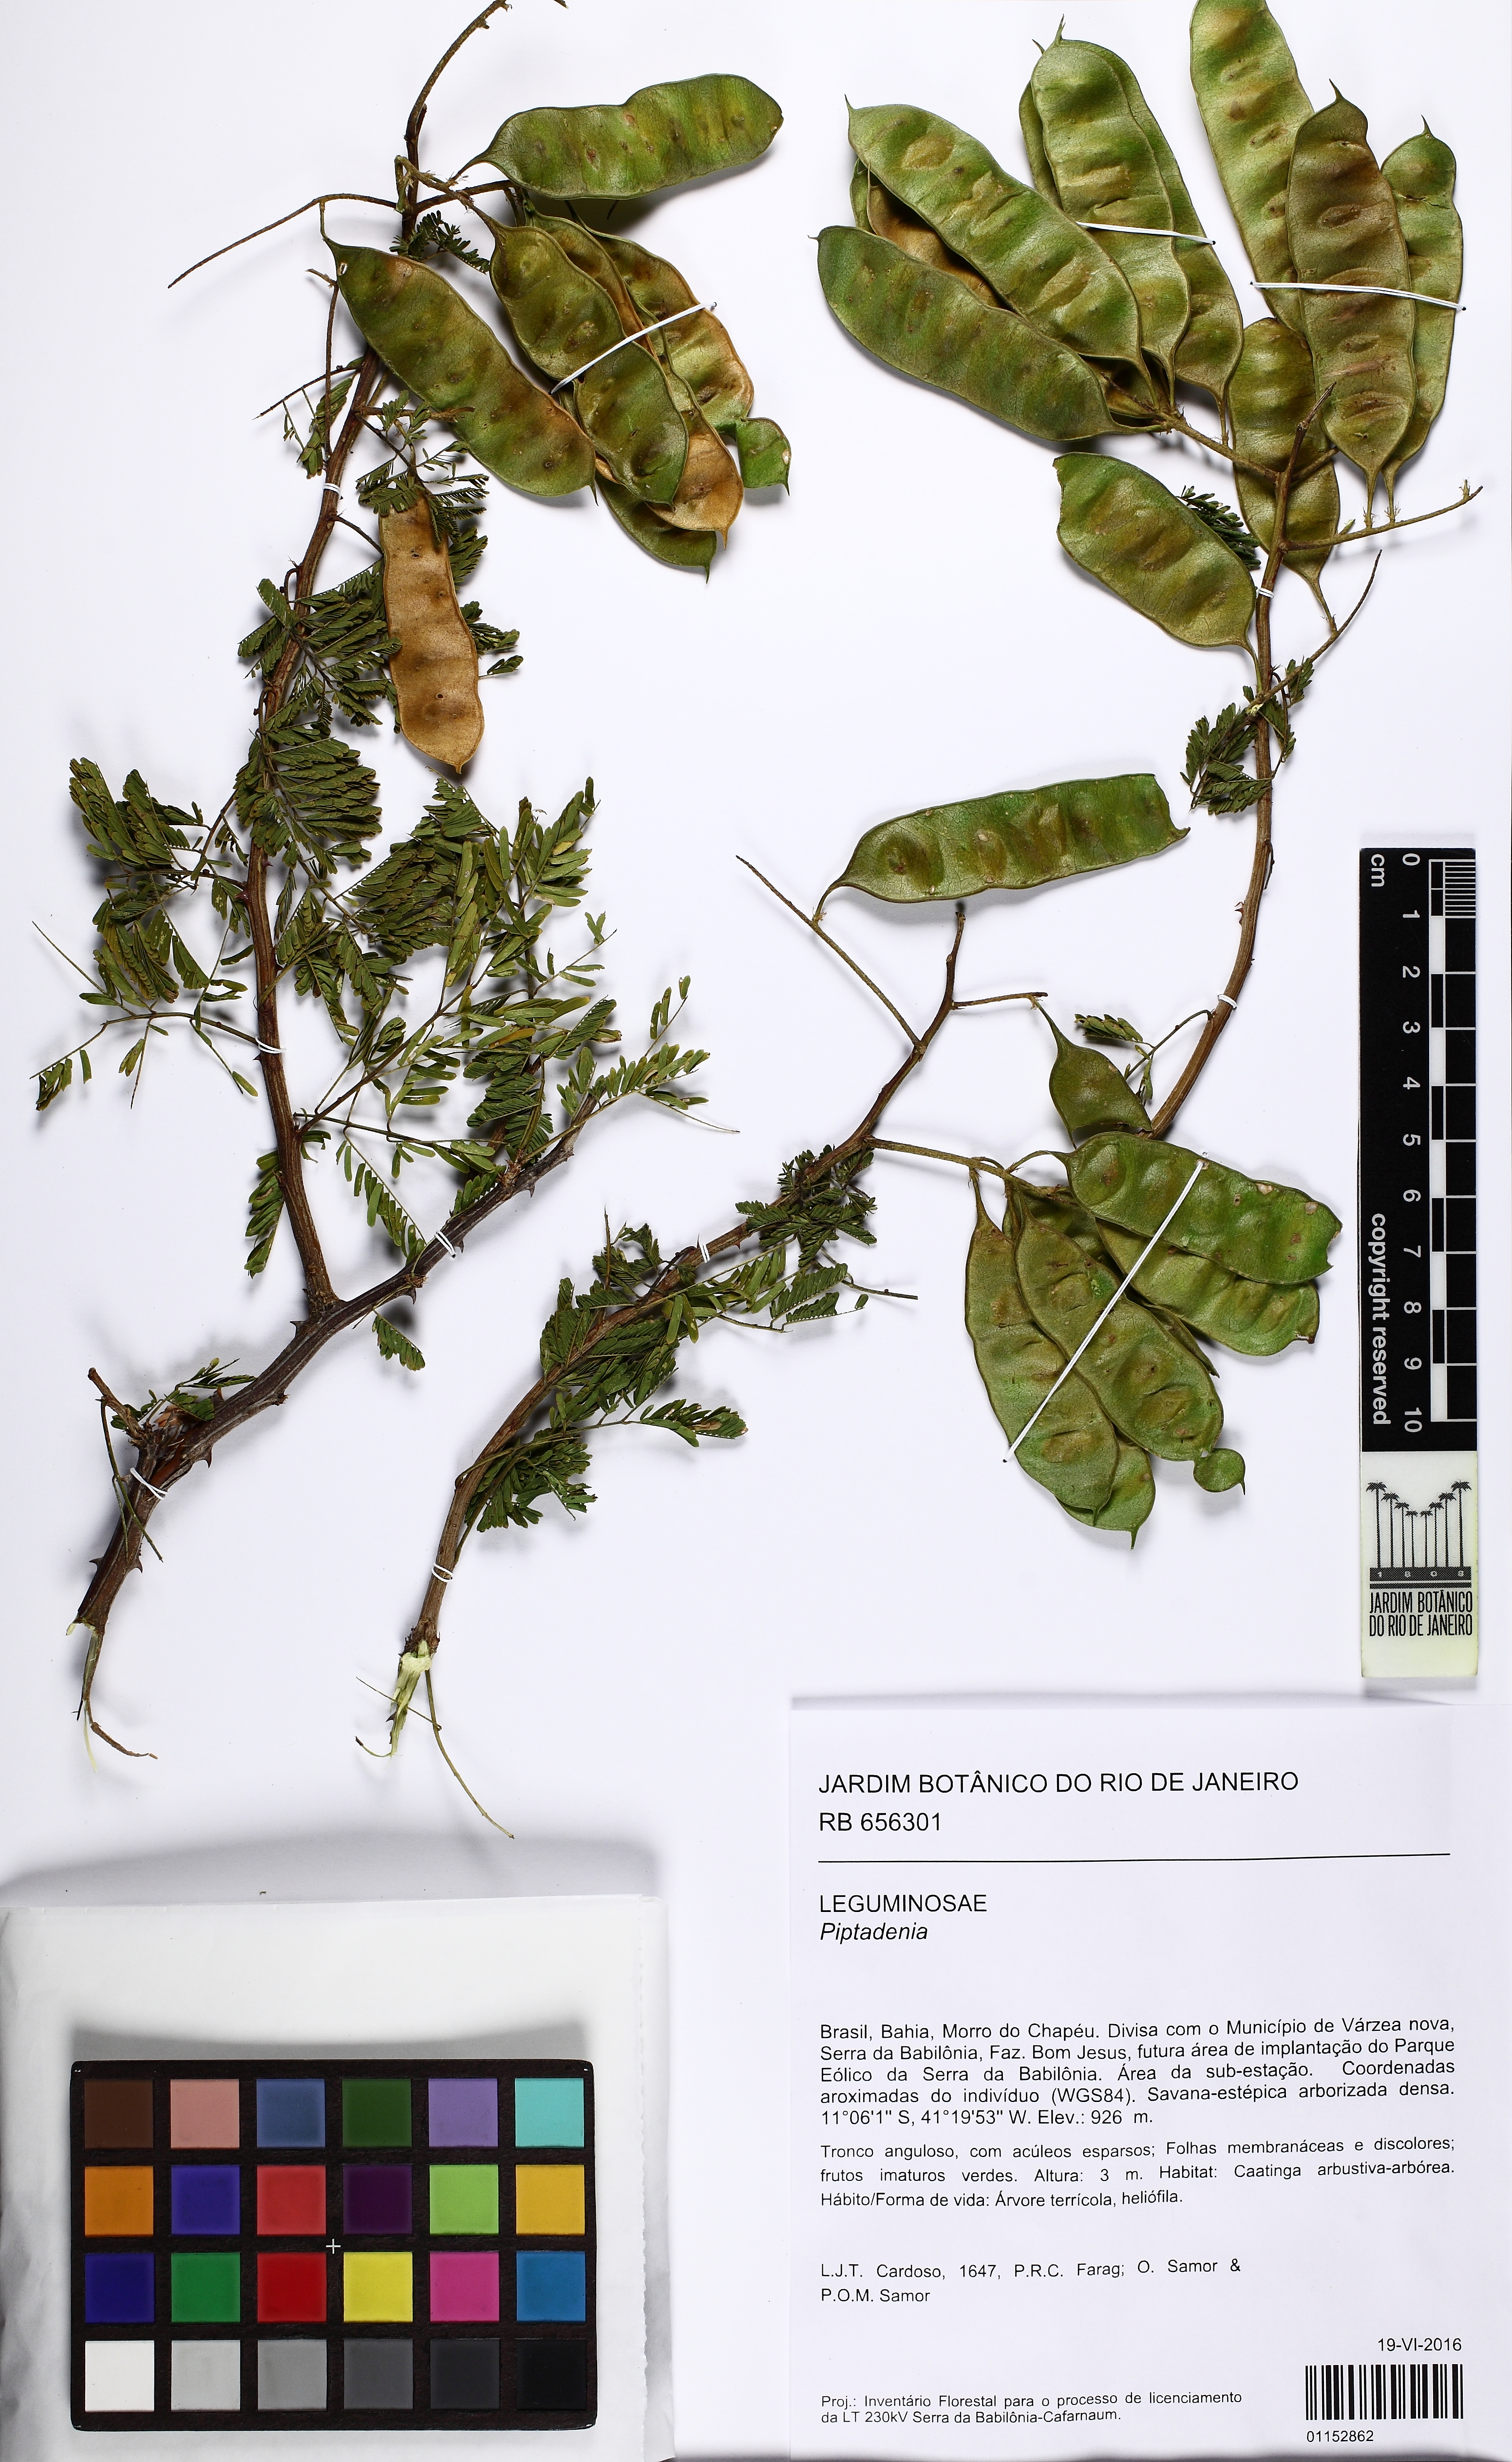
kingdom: Plantae
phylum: Tracheophyta
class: Magnoliopsida
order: Fabales
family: Fabaceae
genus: Piptadenia
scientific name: Piptadenia
